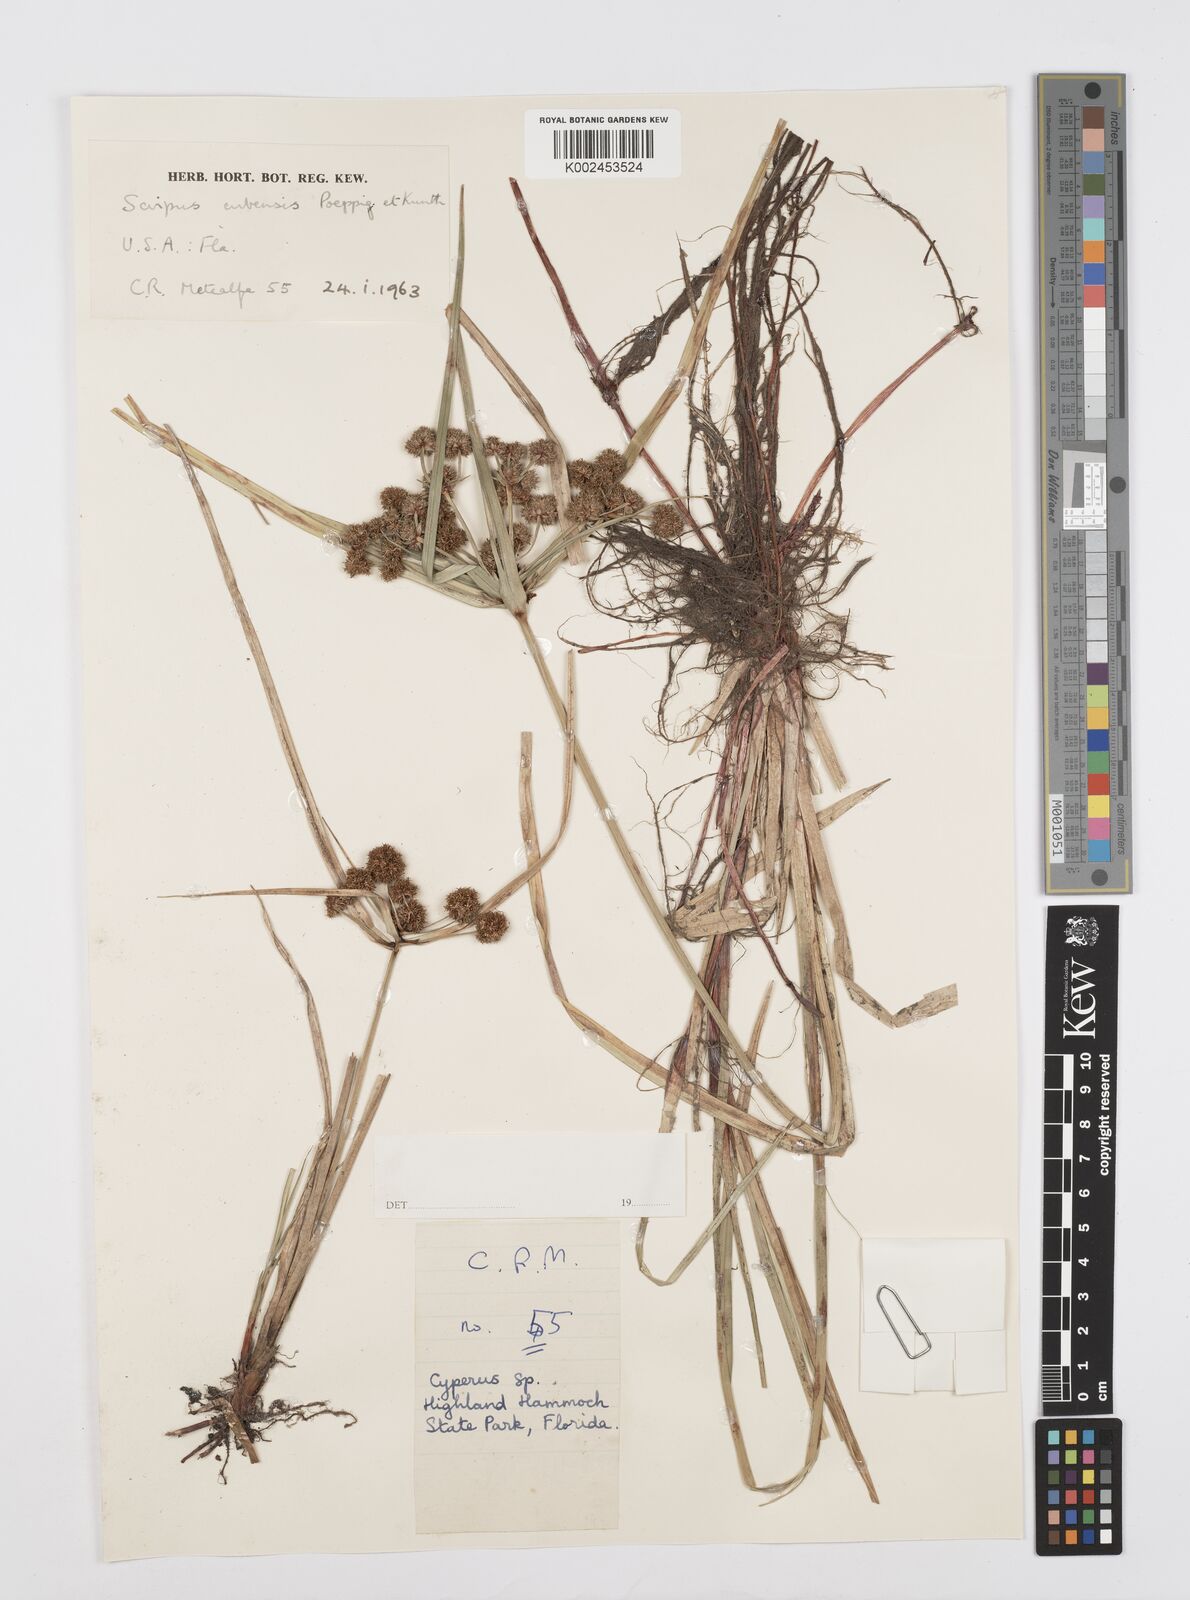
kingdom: Plantae
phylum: Tracheophyta
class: Liliopsida
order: Poales
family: Cyperaceae
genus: Cyperus
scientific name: Cyperus elegans
